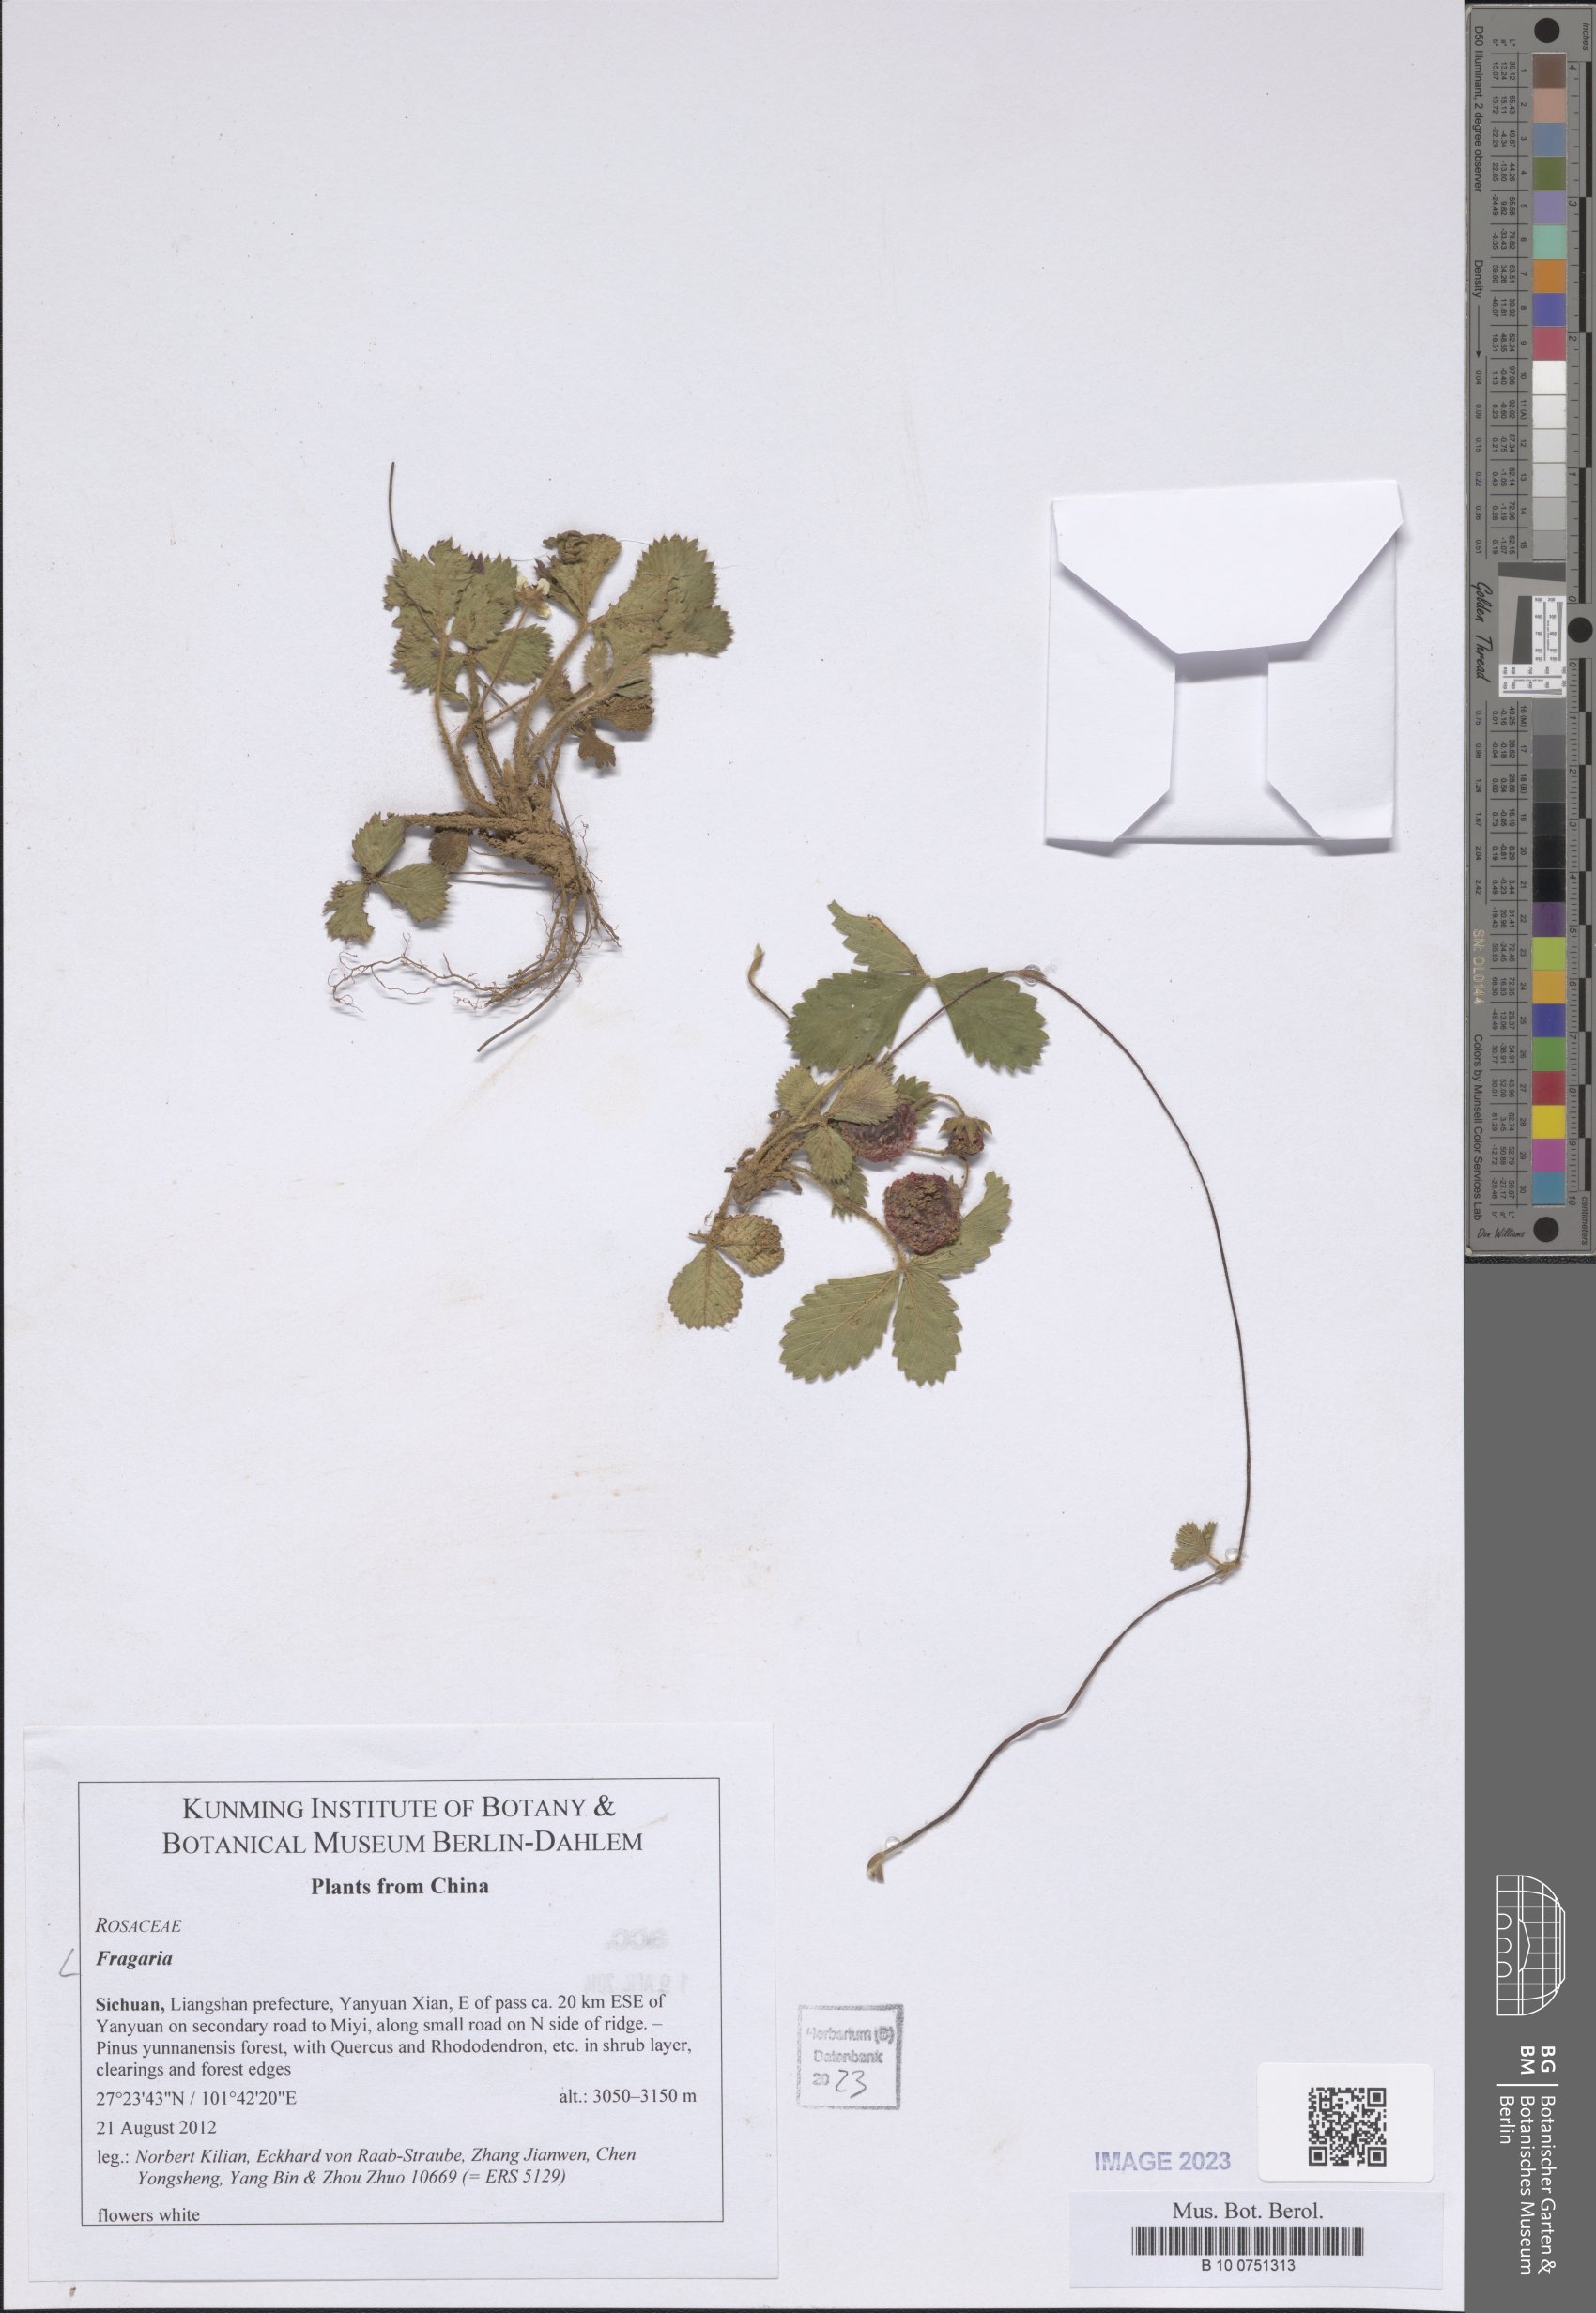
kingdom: Plantae
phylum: Tracheophyta
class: Magnoliopsida
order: Rosales
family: Rosaceae
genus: Fragaria
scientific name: Fragaria
